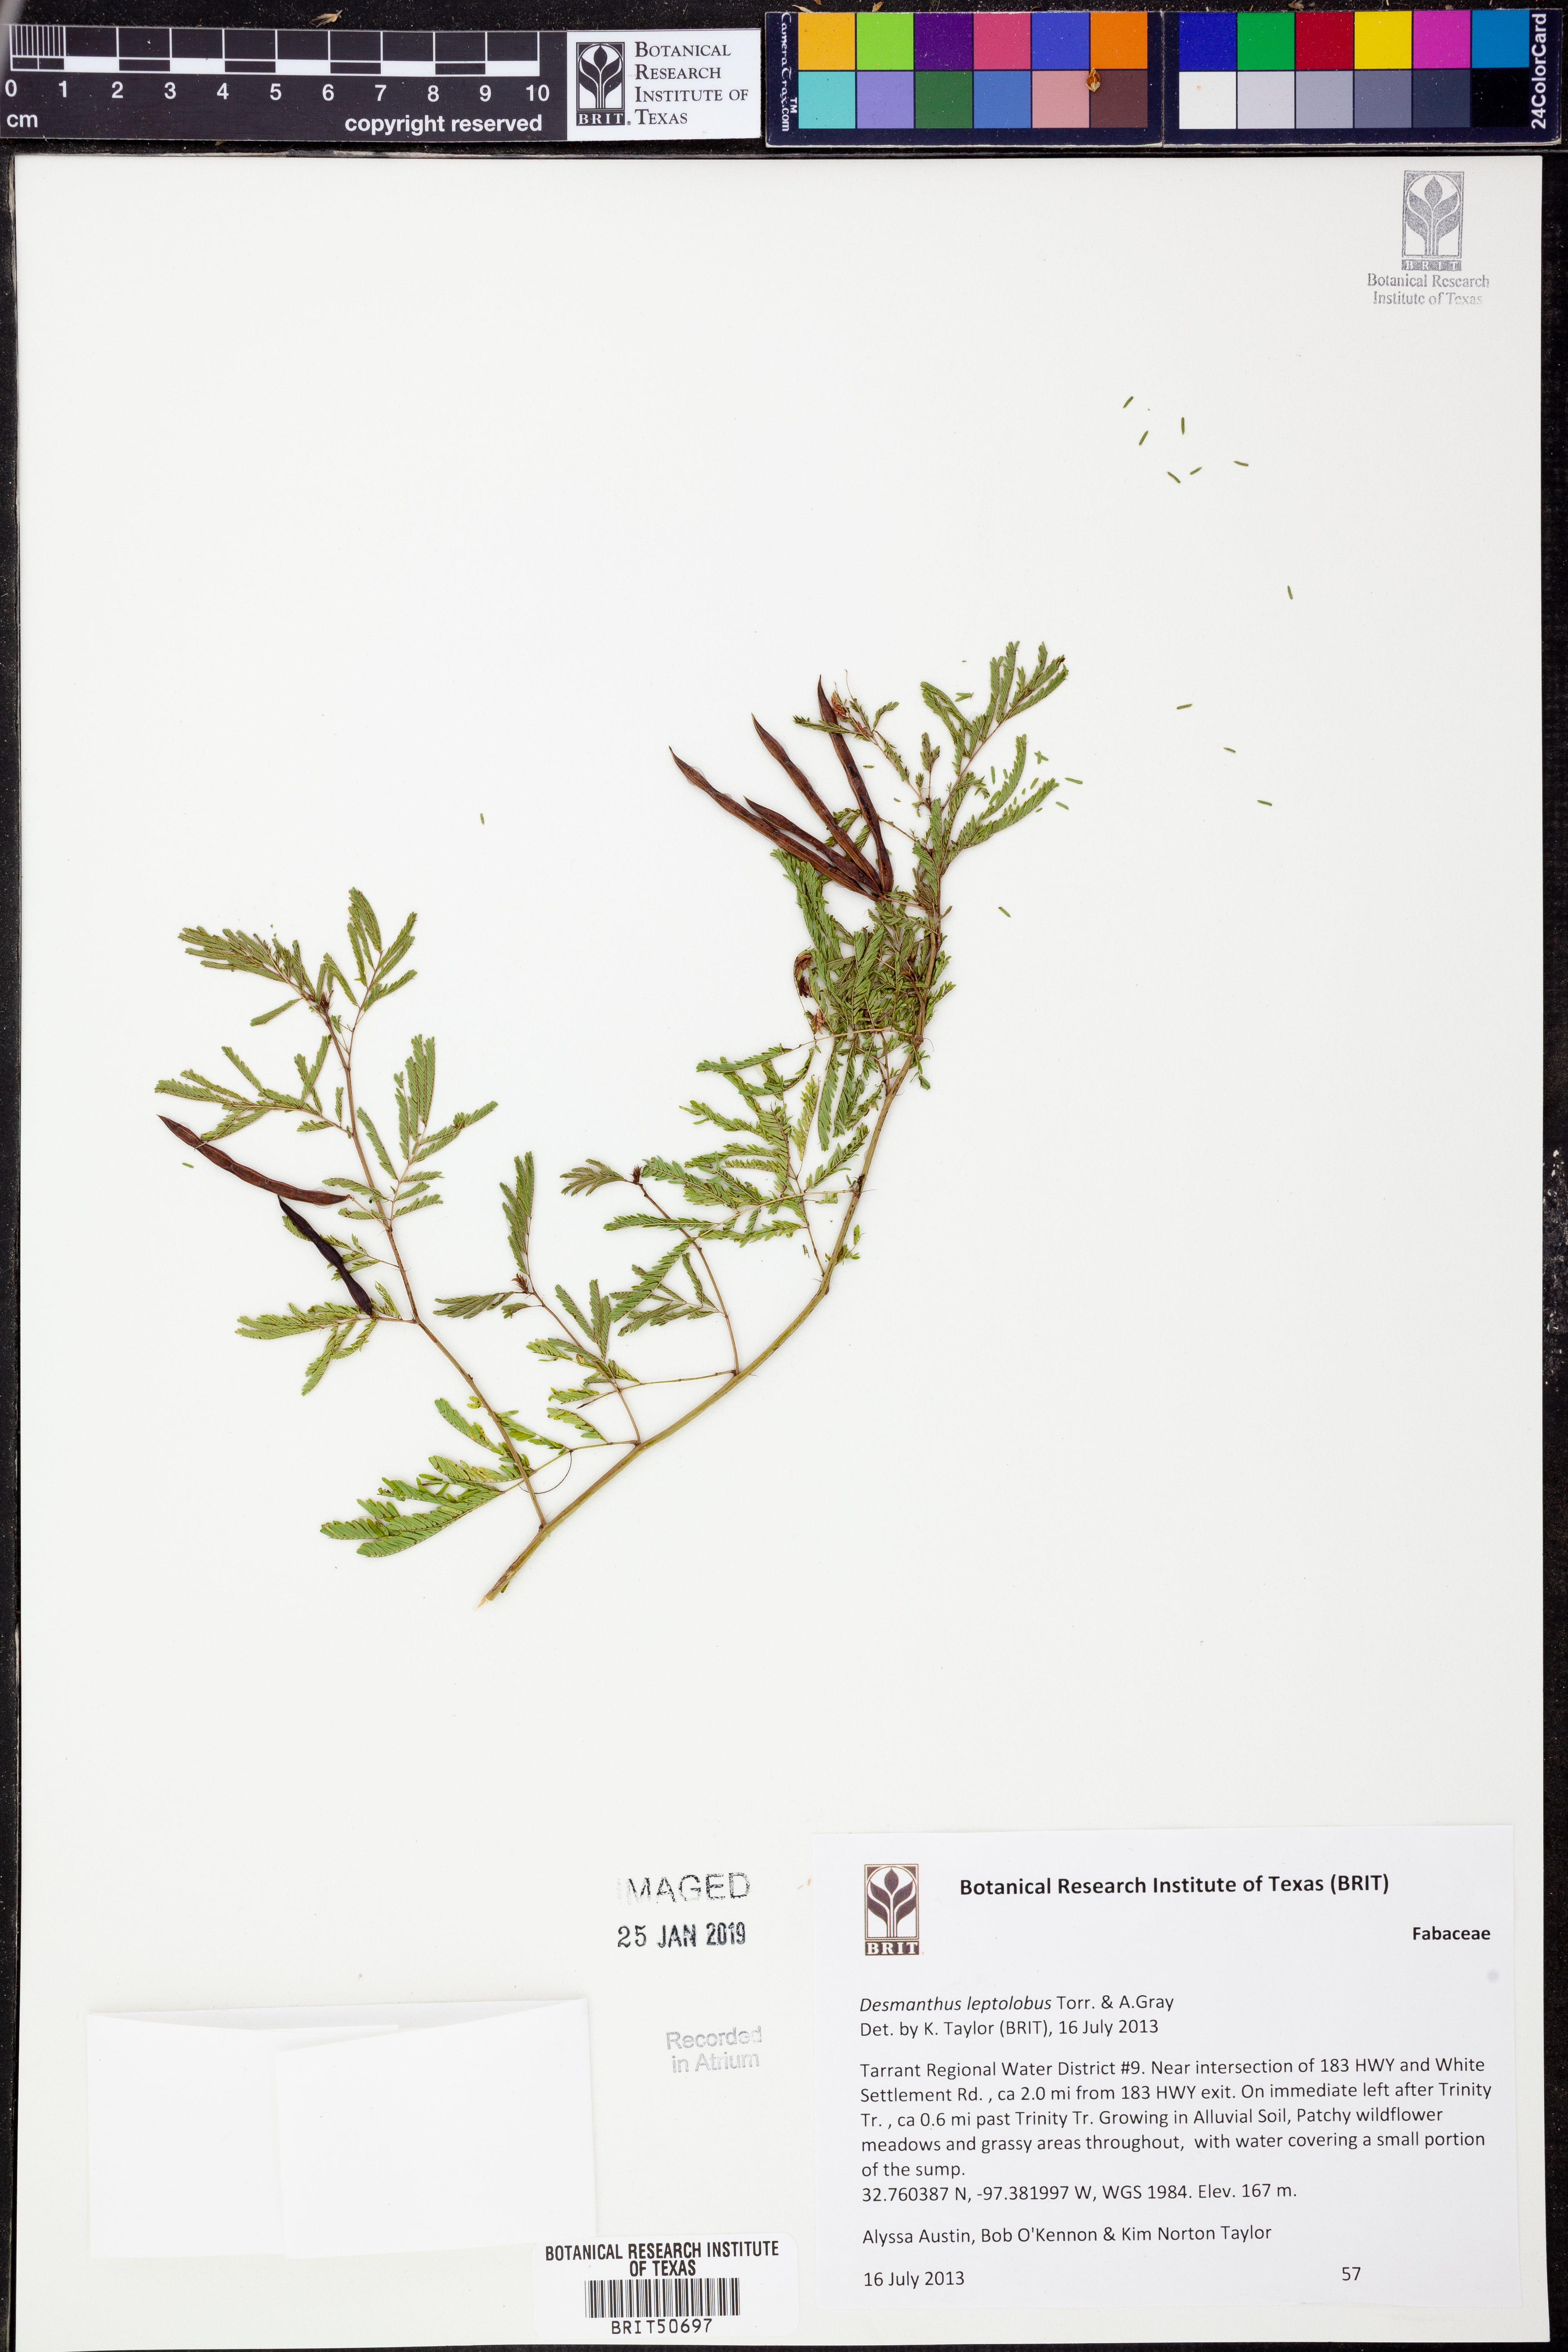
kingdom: Plantae
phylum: Tracheophyta
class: Magnoliopsida
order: Fabales
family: Fabaceae
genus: Desmanthus
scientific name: Desmanthus leptolobus
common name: Prairie-mimosa
